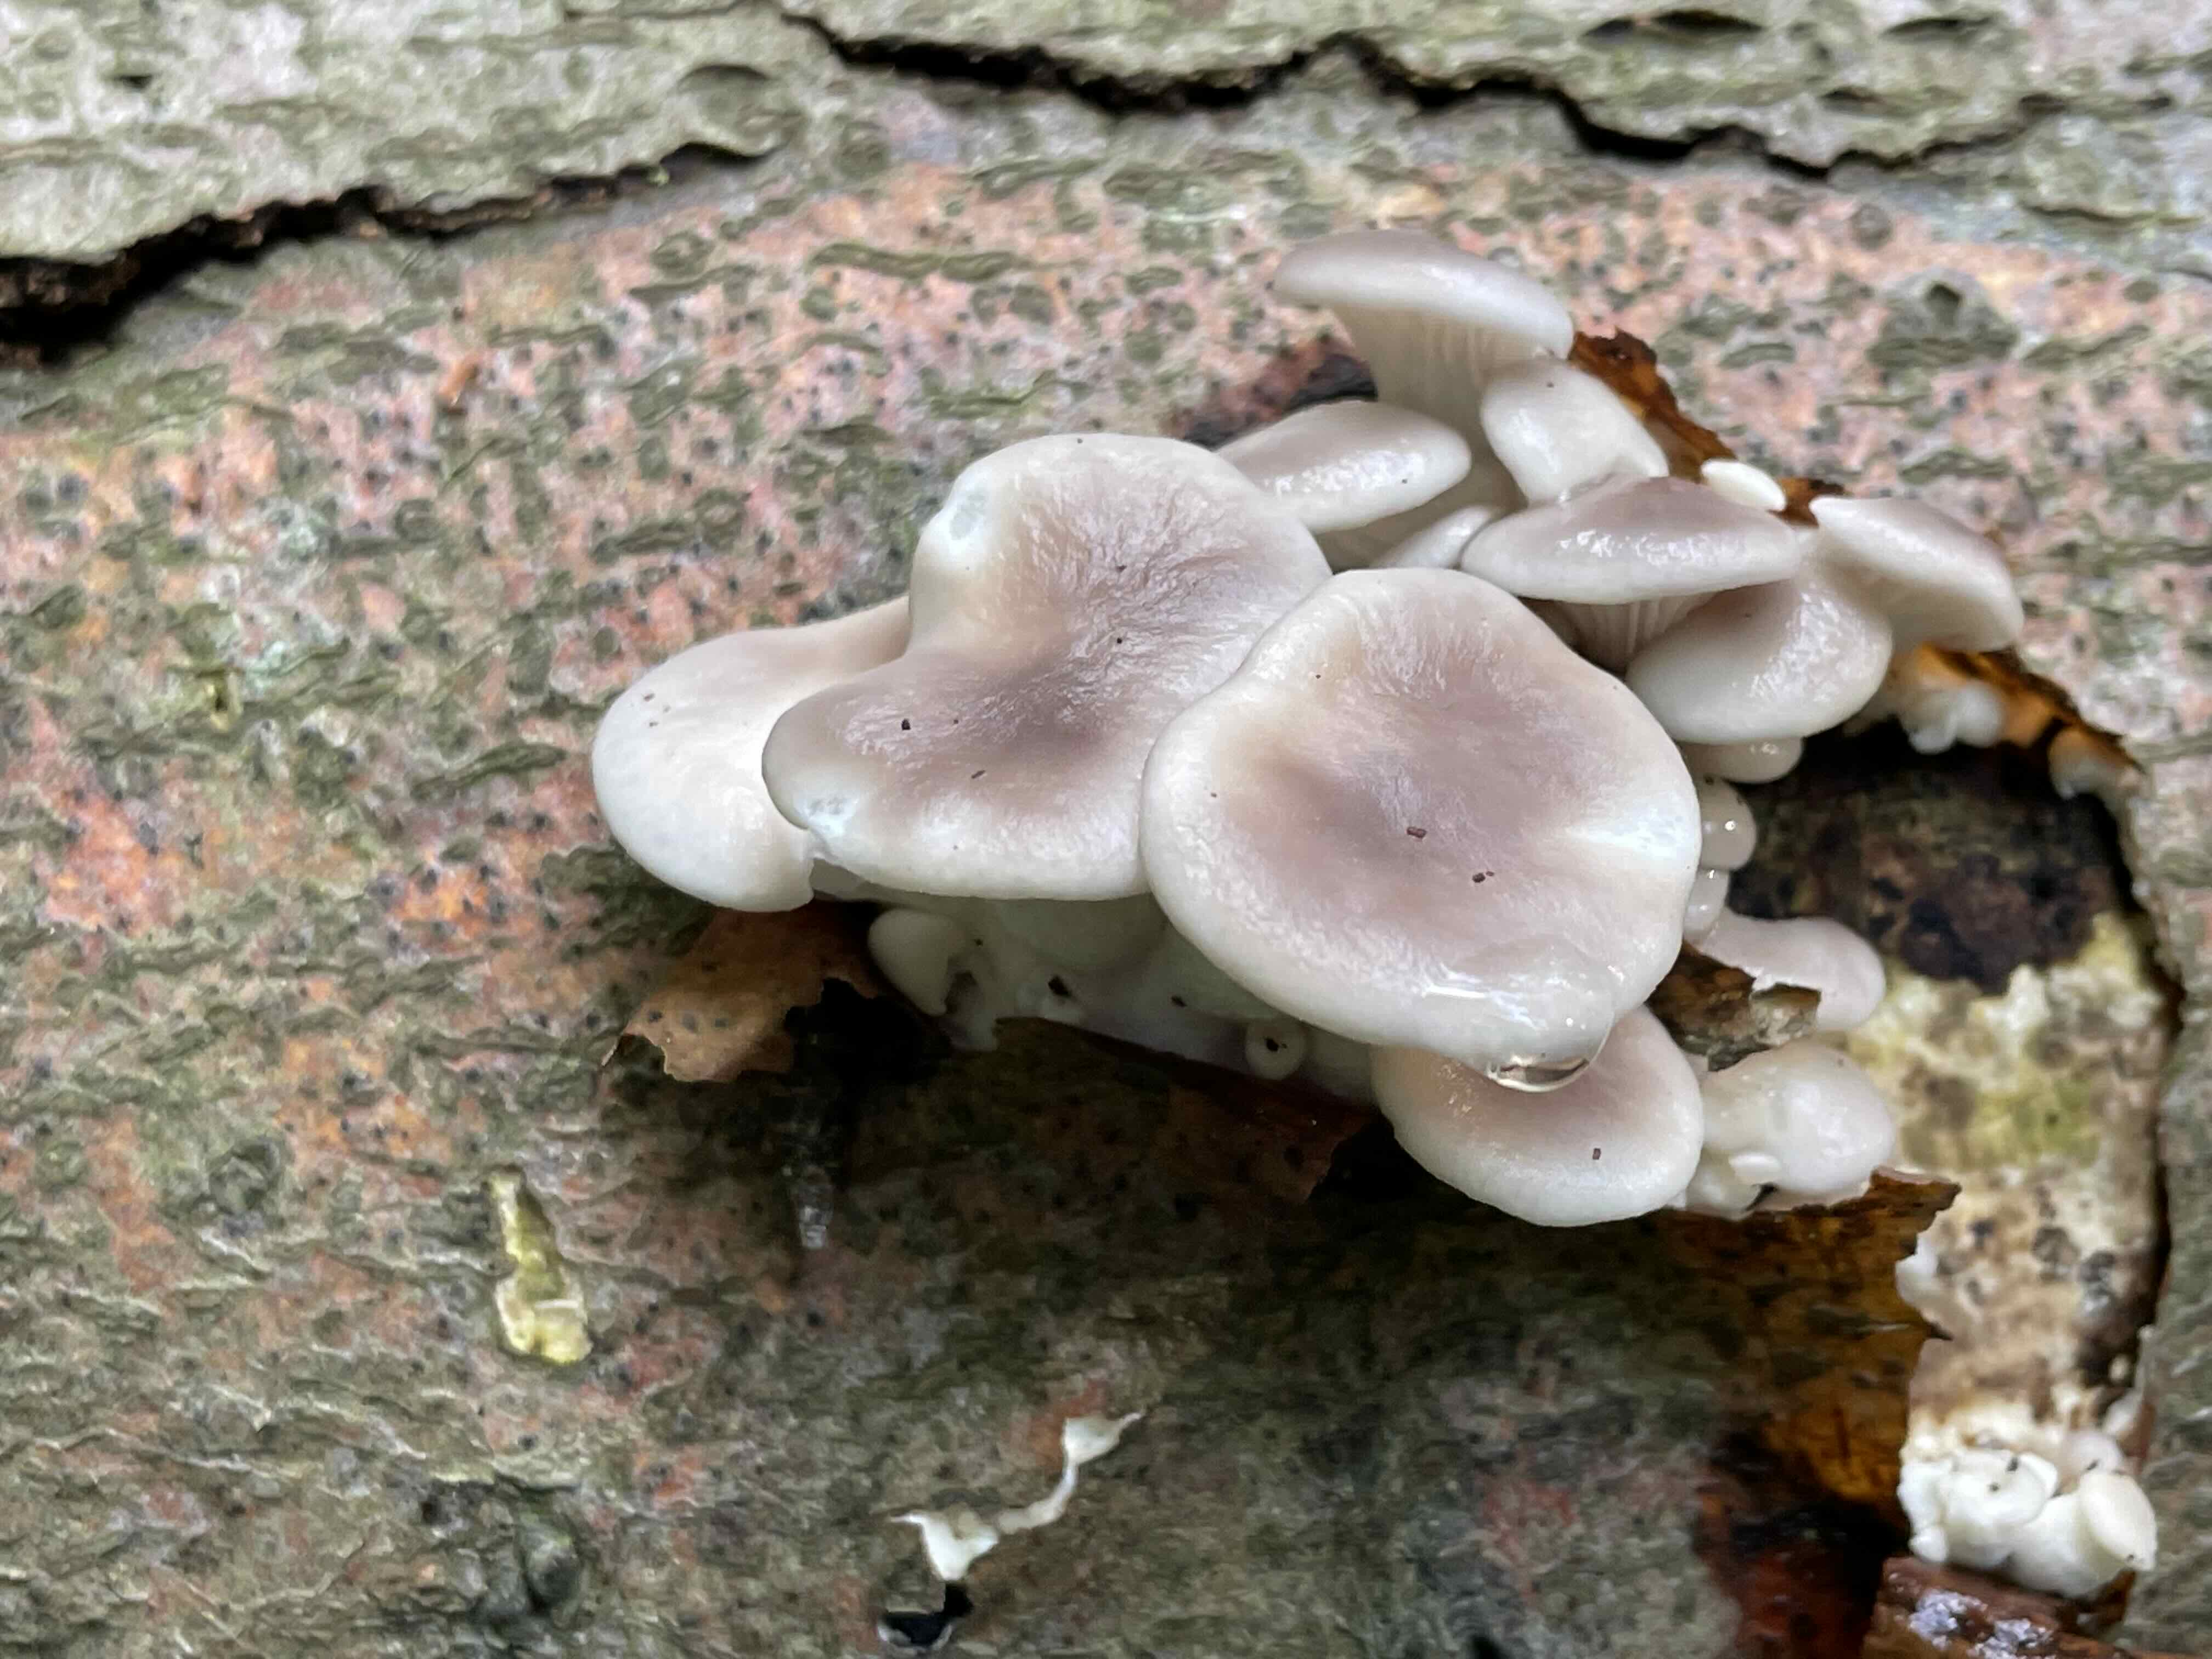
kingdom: Fungi
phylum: Basidiomycota
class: Agaricomycetes
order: Agaricales
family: Pleurotaceae
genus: Pleurotus
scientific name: Pleurotus pulmonarius
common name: sommer-østershat
